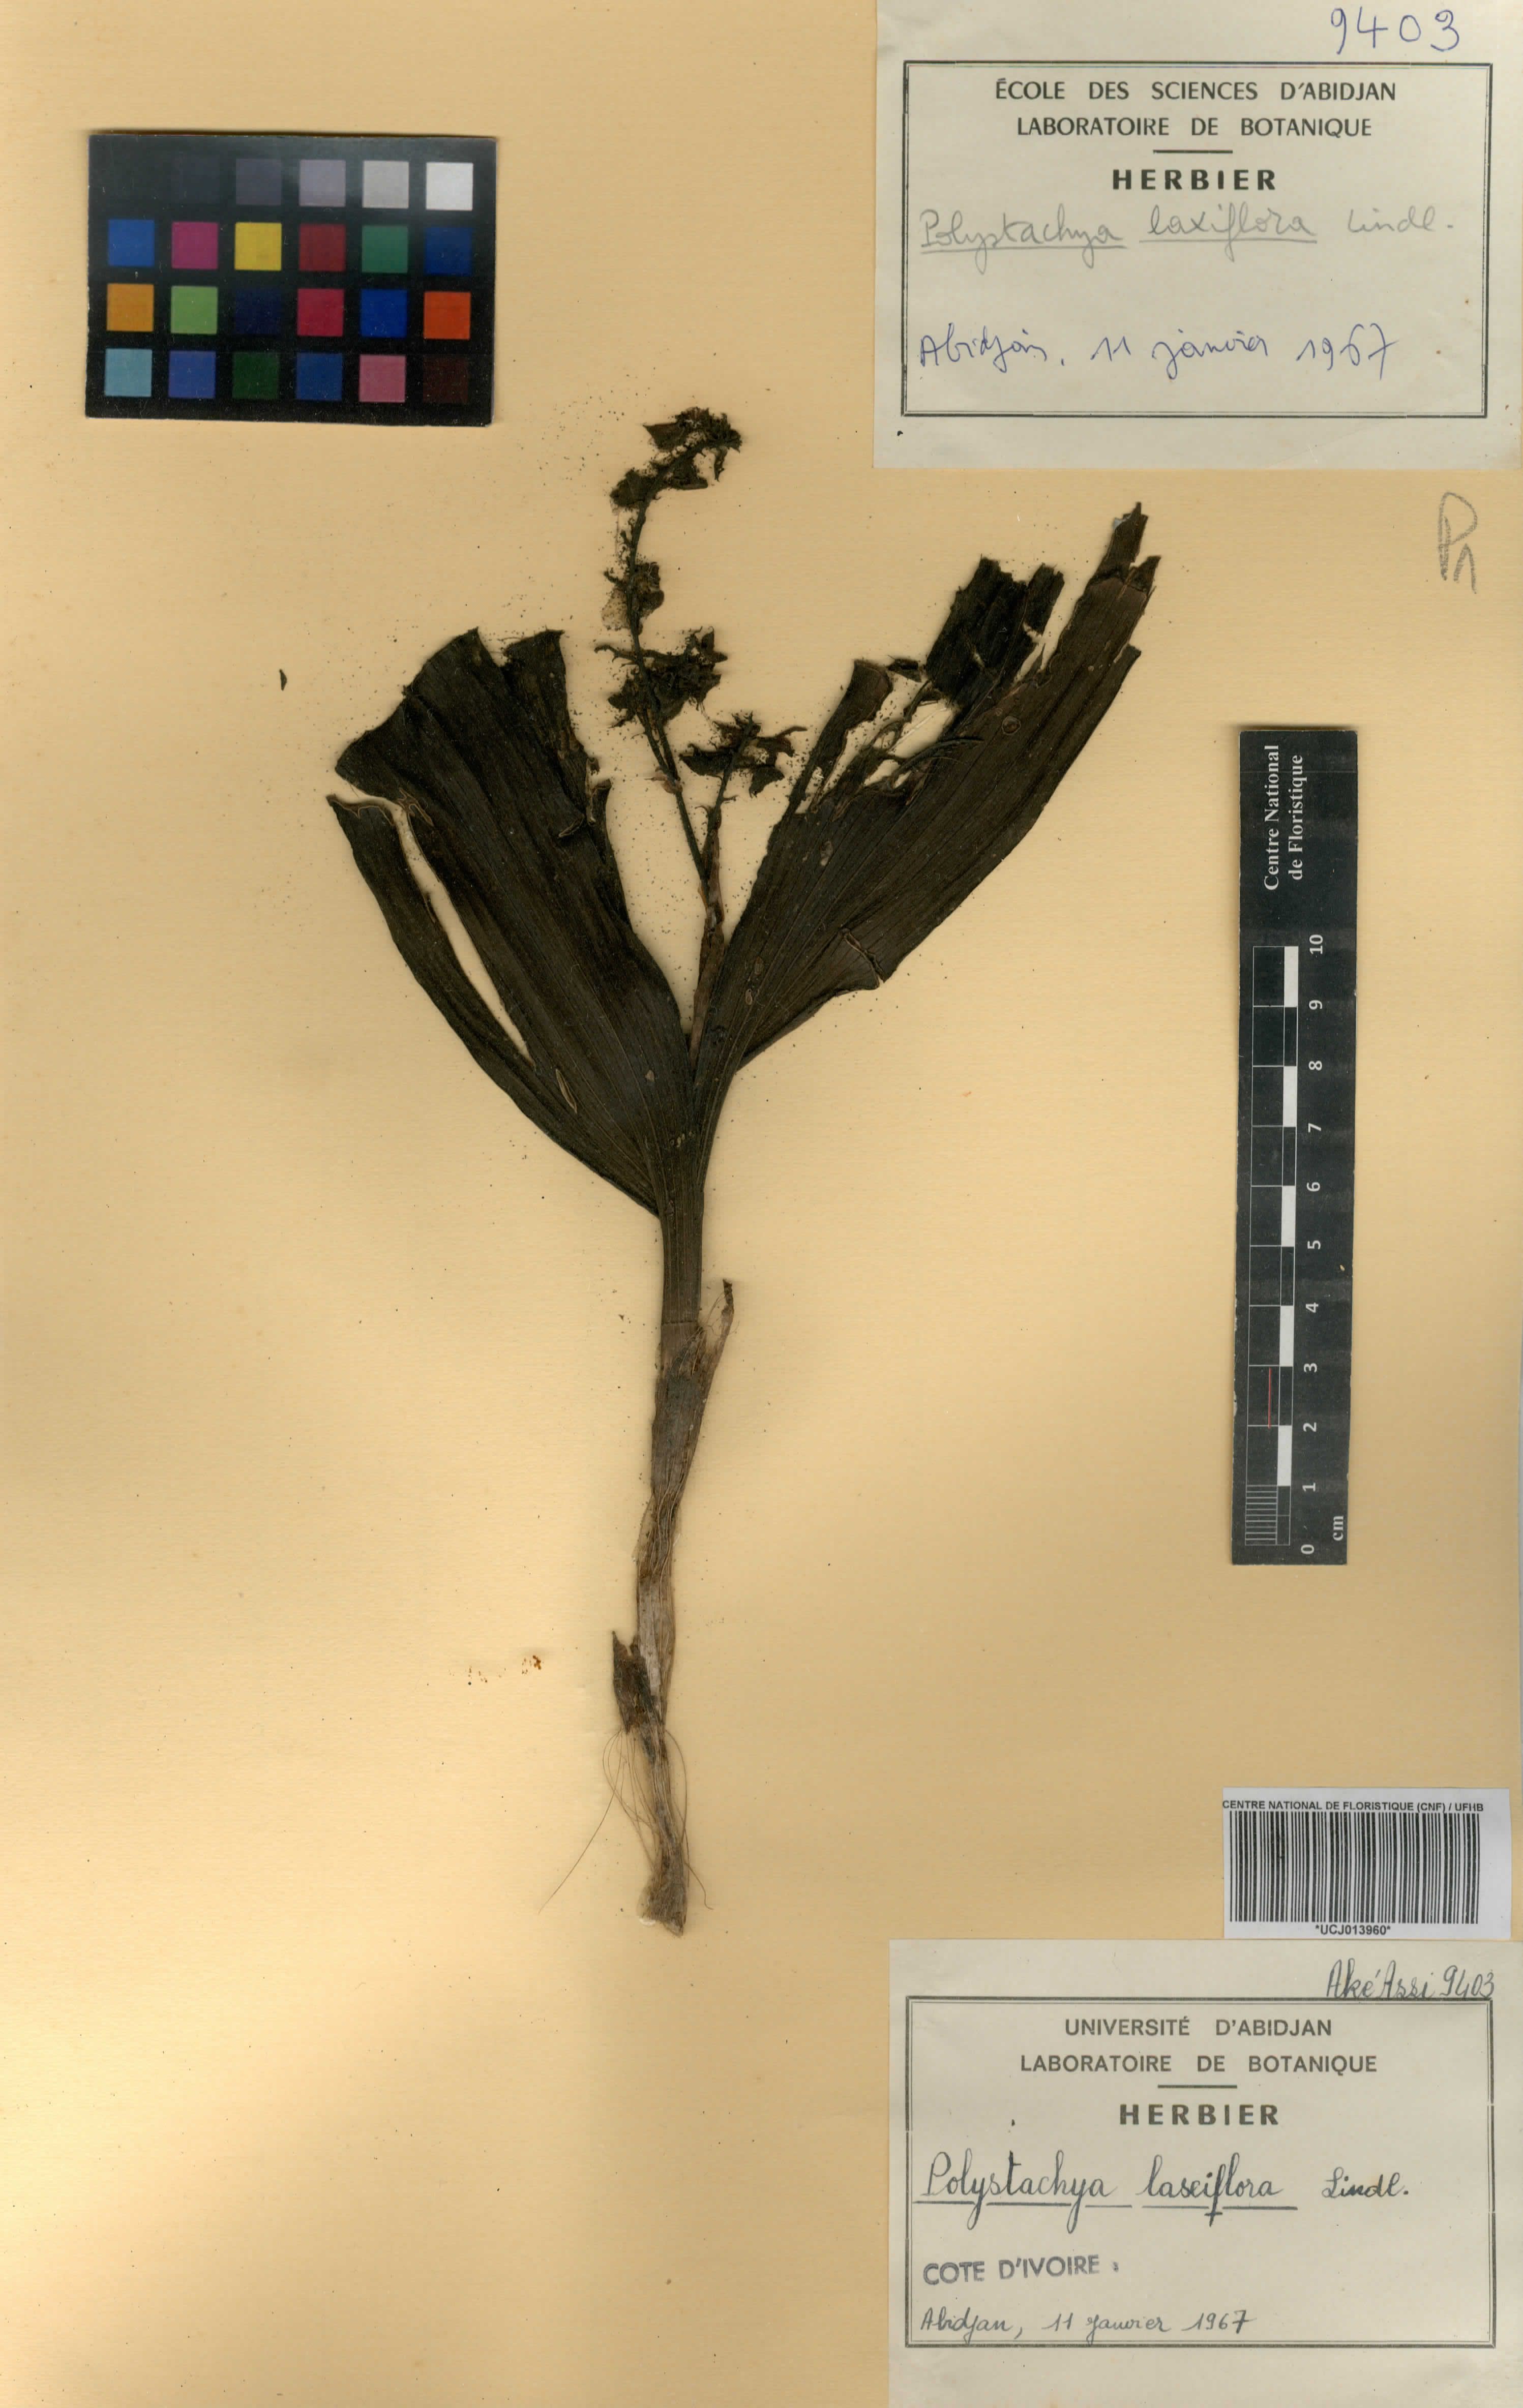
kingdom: Plantae
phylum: Tracheophyta
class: Liliopsida
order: Asparagales
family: Orchidaceae
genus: Polystachya
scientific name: Polystachya laxiflora
